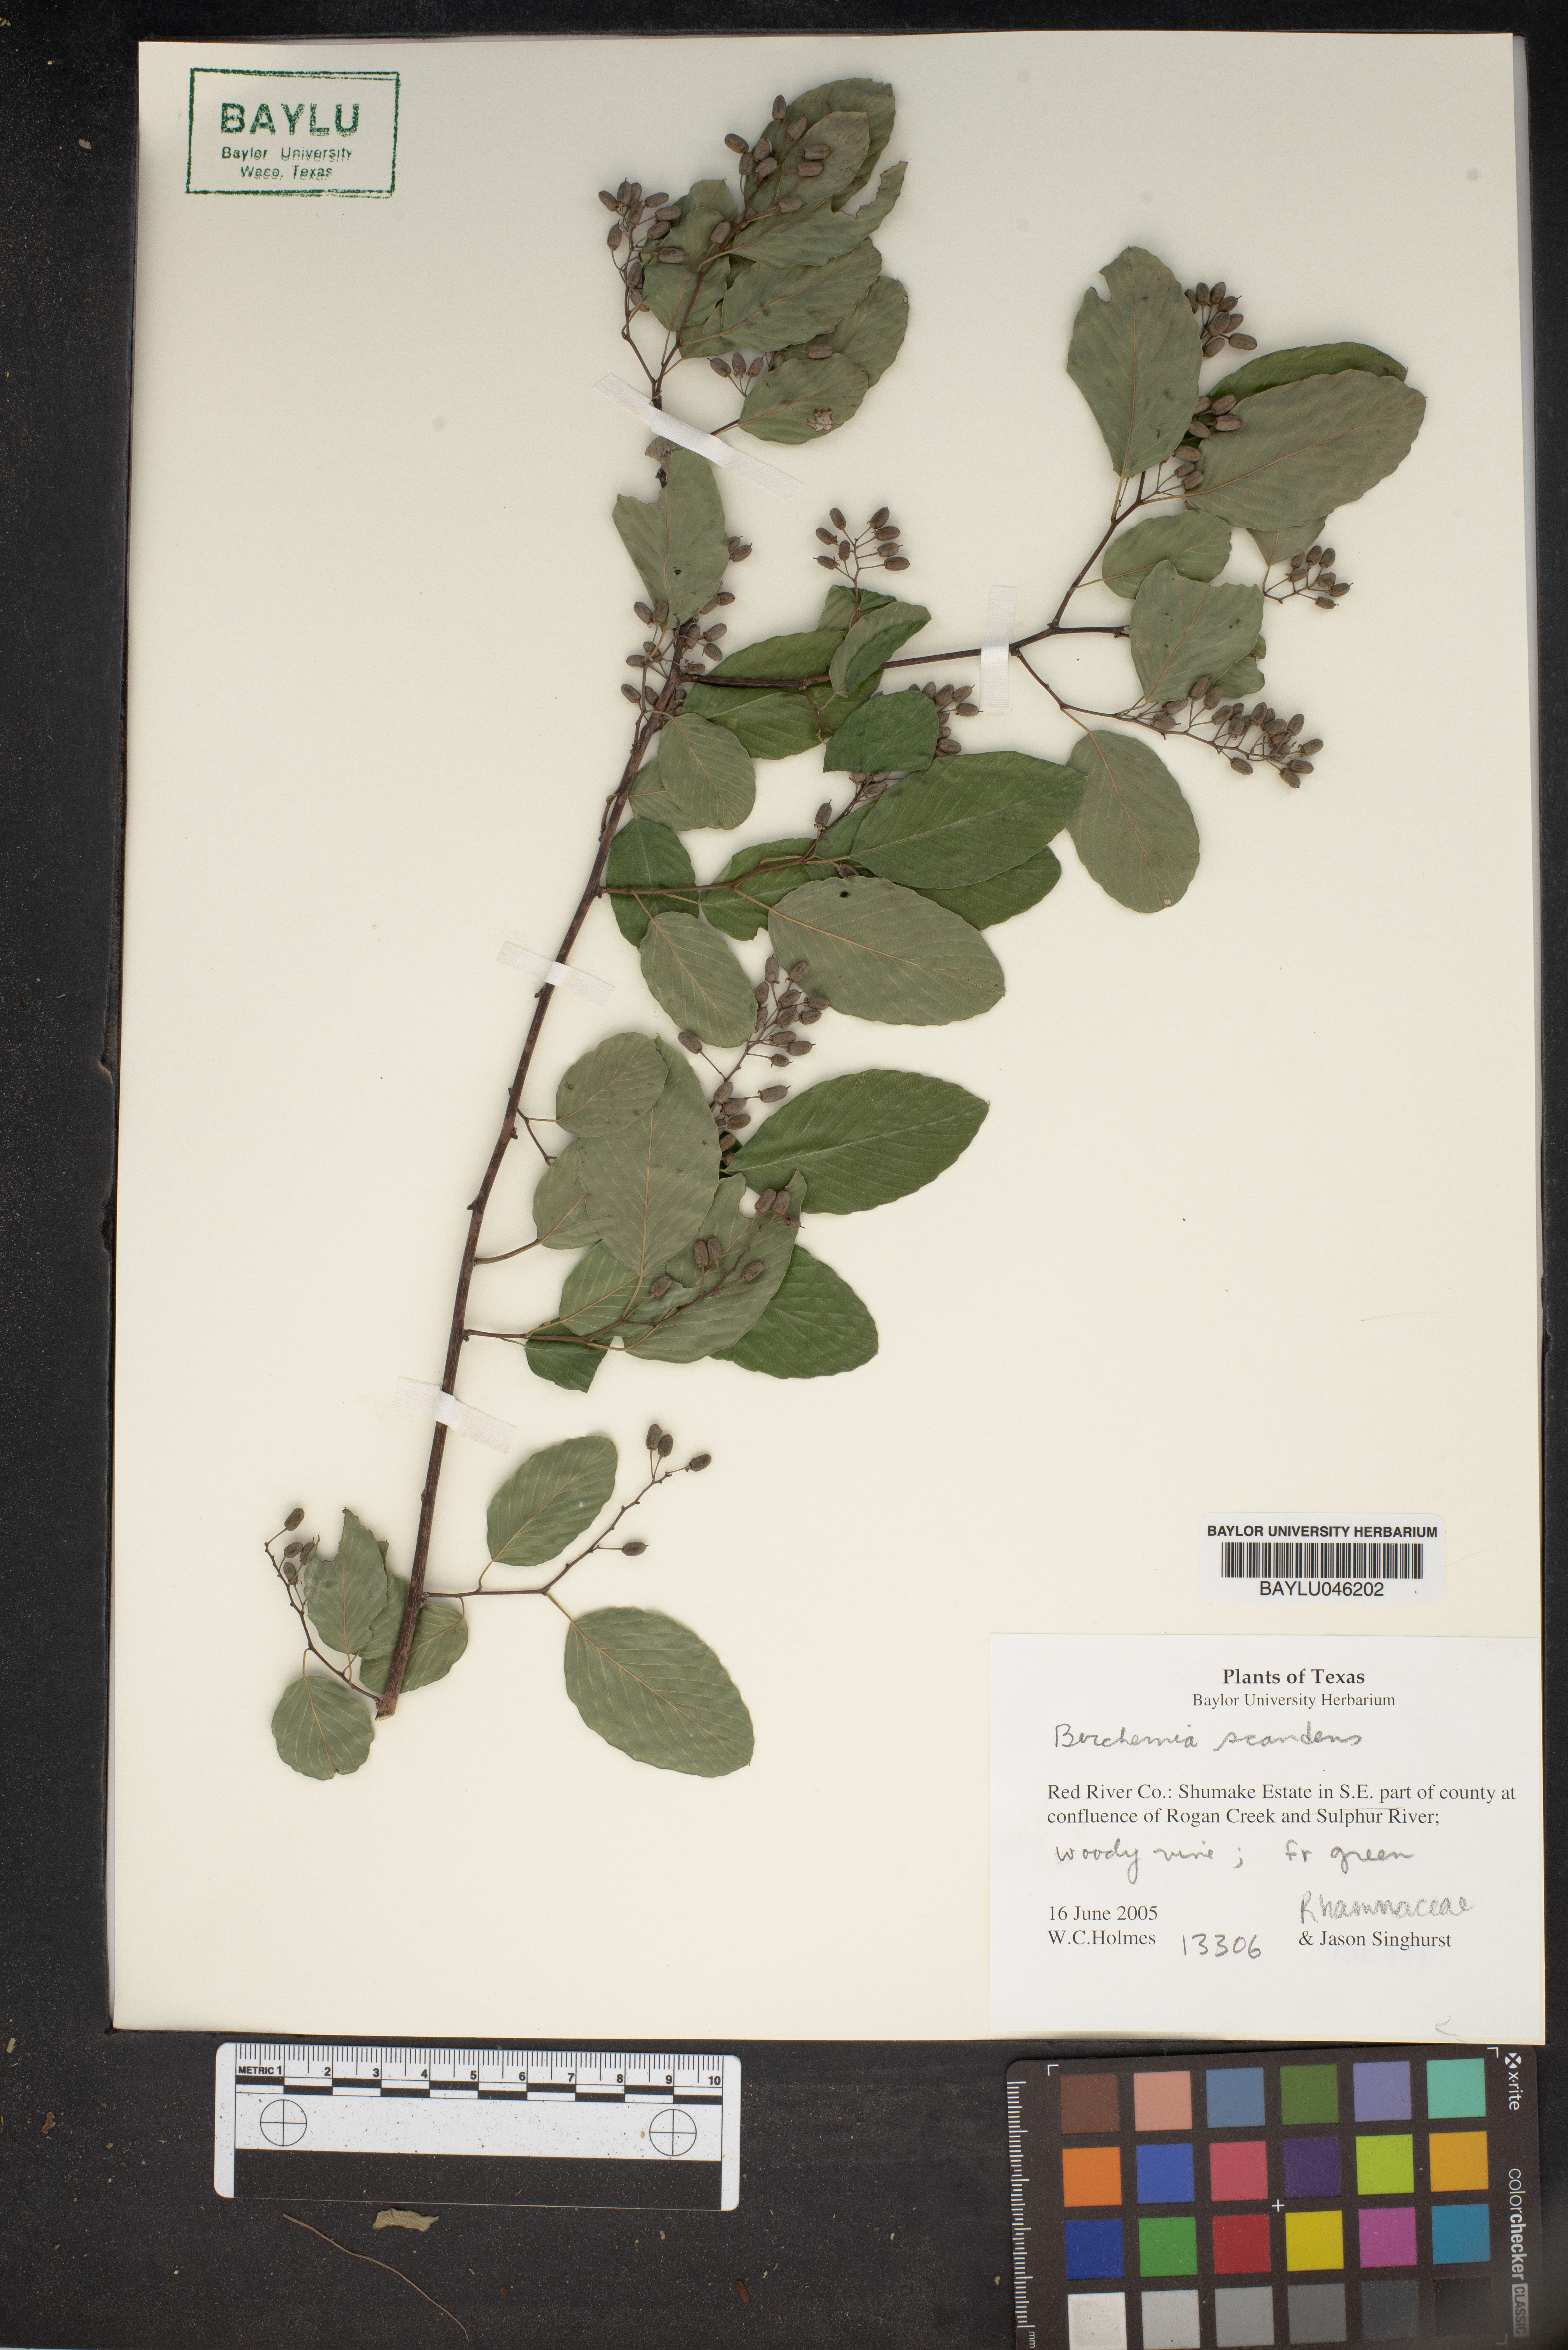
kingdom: Plantae
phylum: Tracheophyta
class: Magnoliopsida
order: Rosales
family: Rhamnaceae
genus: Berchemia
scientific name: Berchemia scandens
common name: Supplejack
